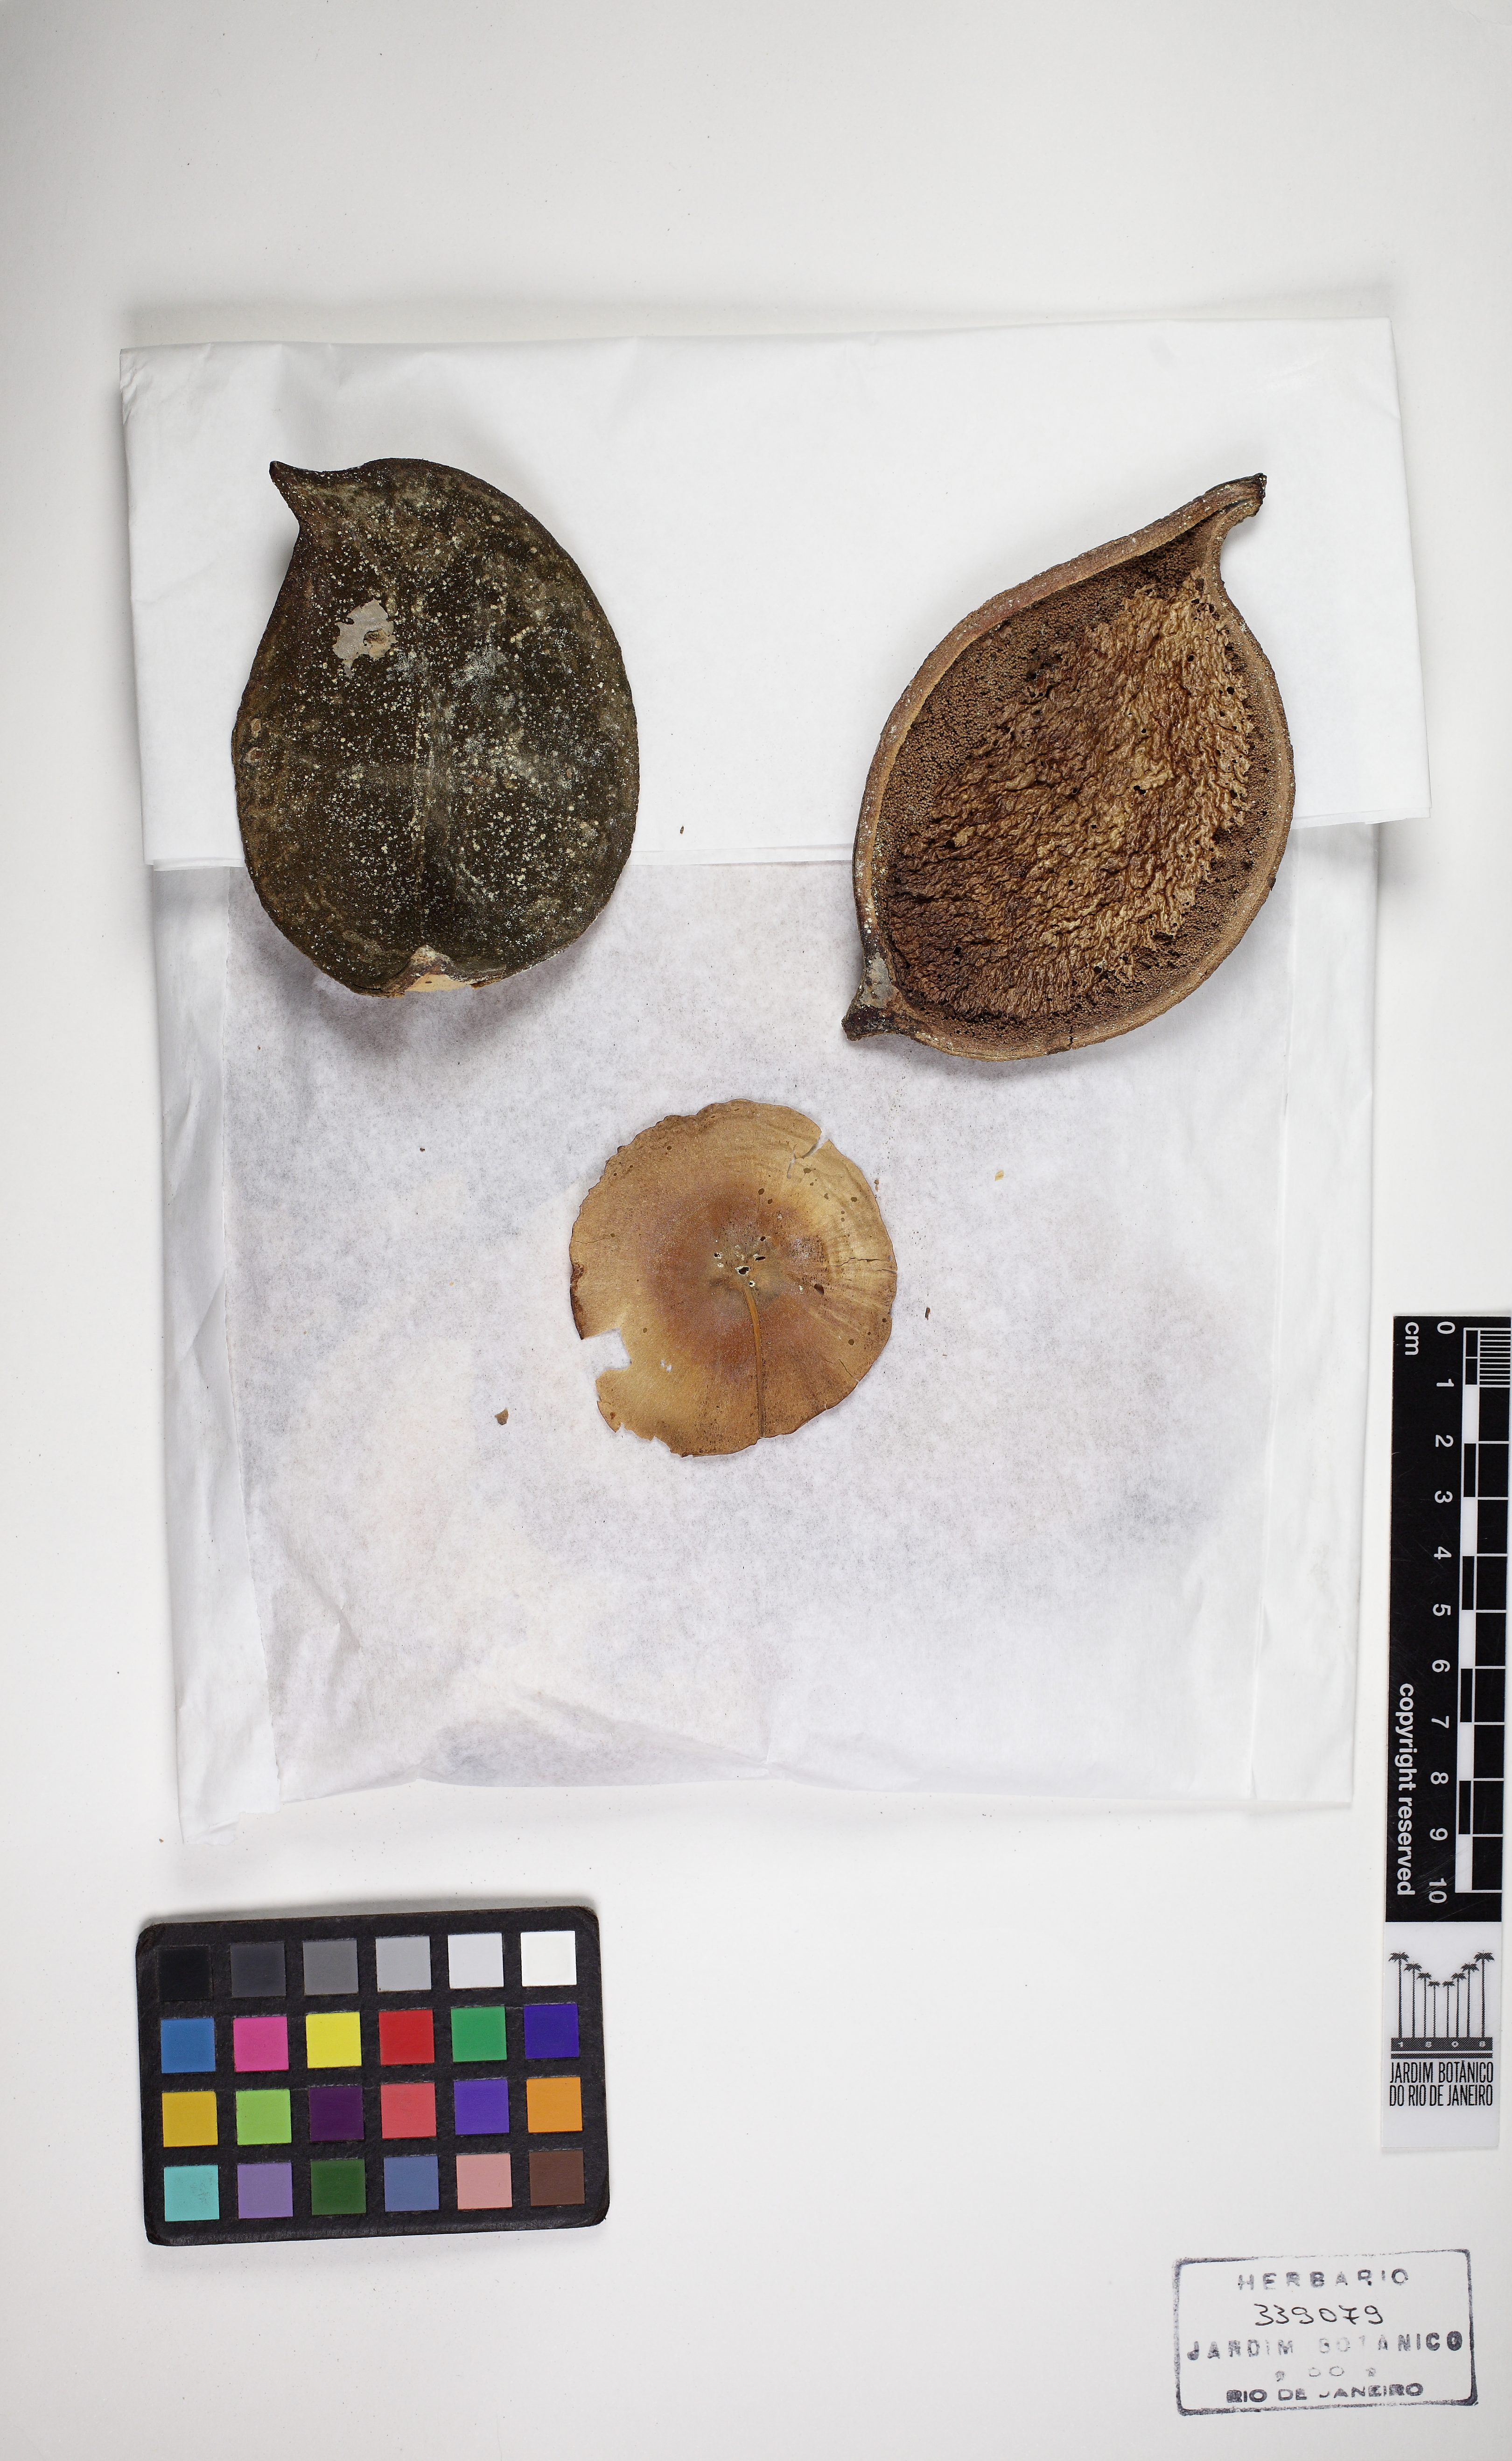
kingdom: Plantae
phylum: Tracheophyta
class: Magnoliopsida
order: Gentianales
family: Apocynaceae
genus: Aspidosperma
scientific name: Aspidosperma spruceanum
